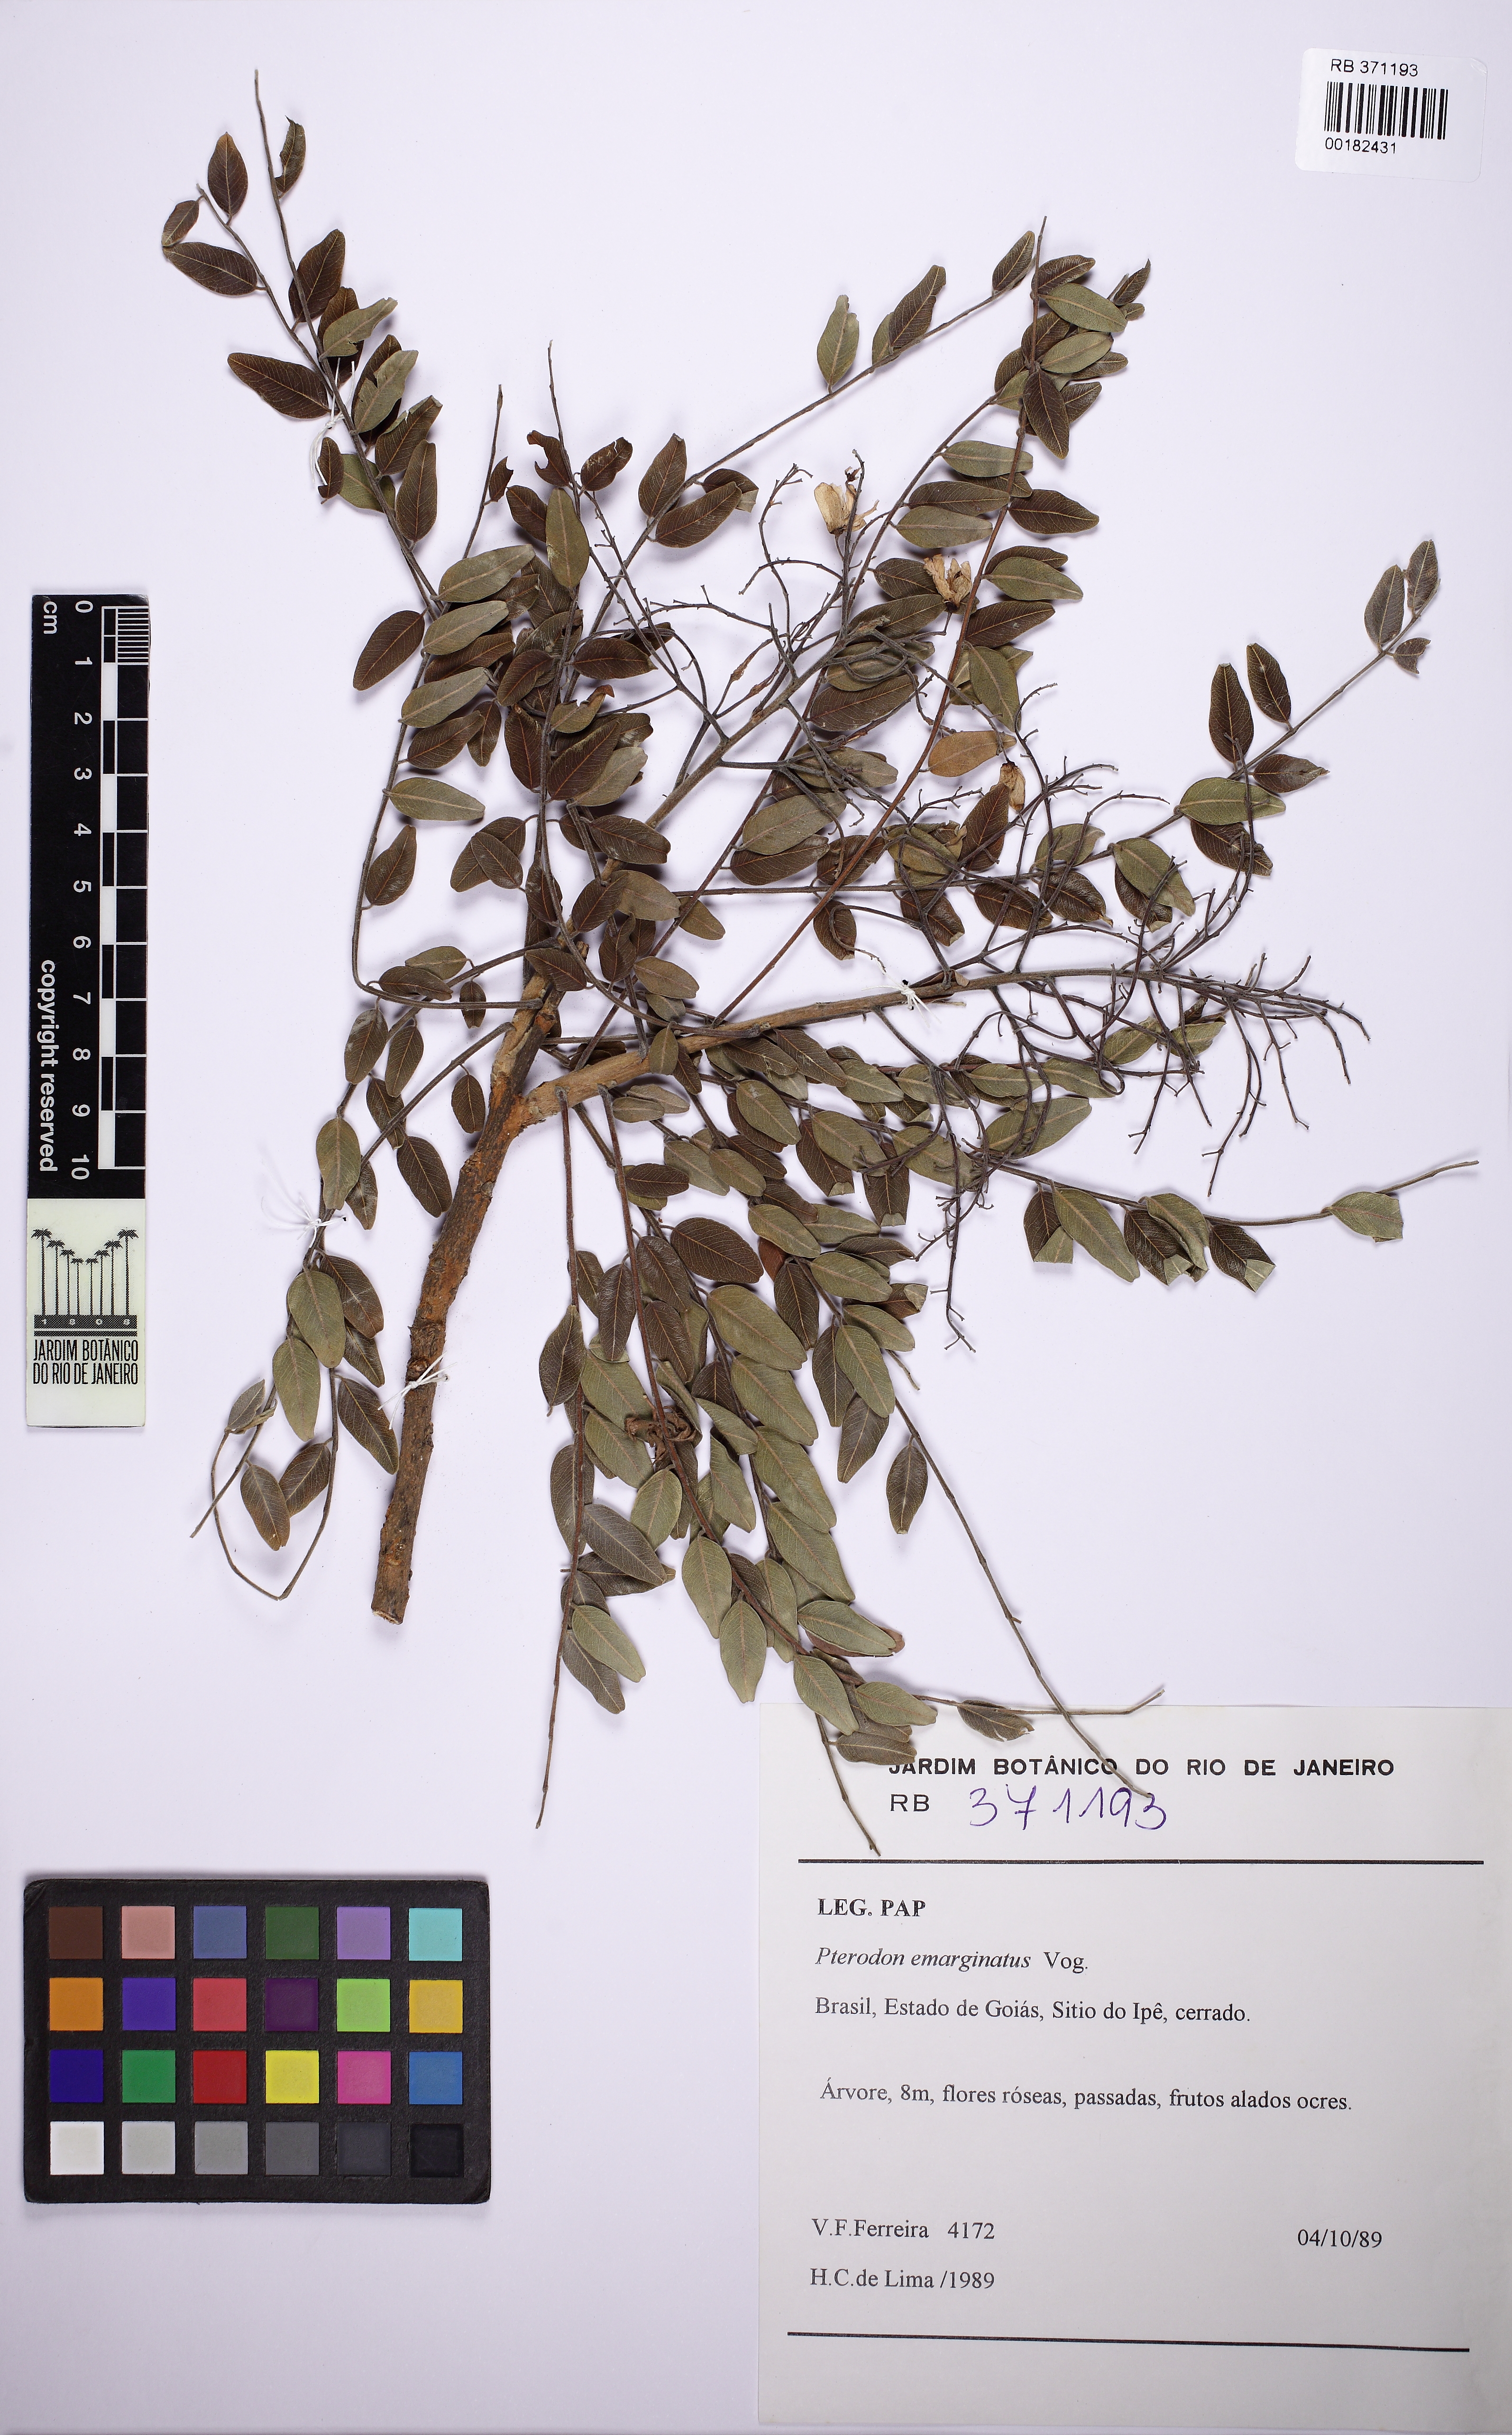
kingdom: Plantae
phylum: Tracheophyta
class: Magnoliopsida
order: Fabales
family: Fabaceae
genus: Pterodon
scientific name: Pterodon emarginatus
